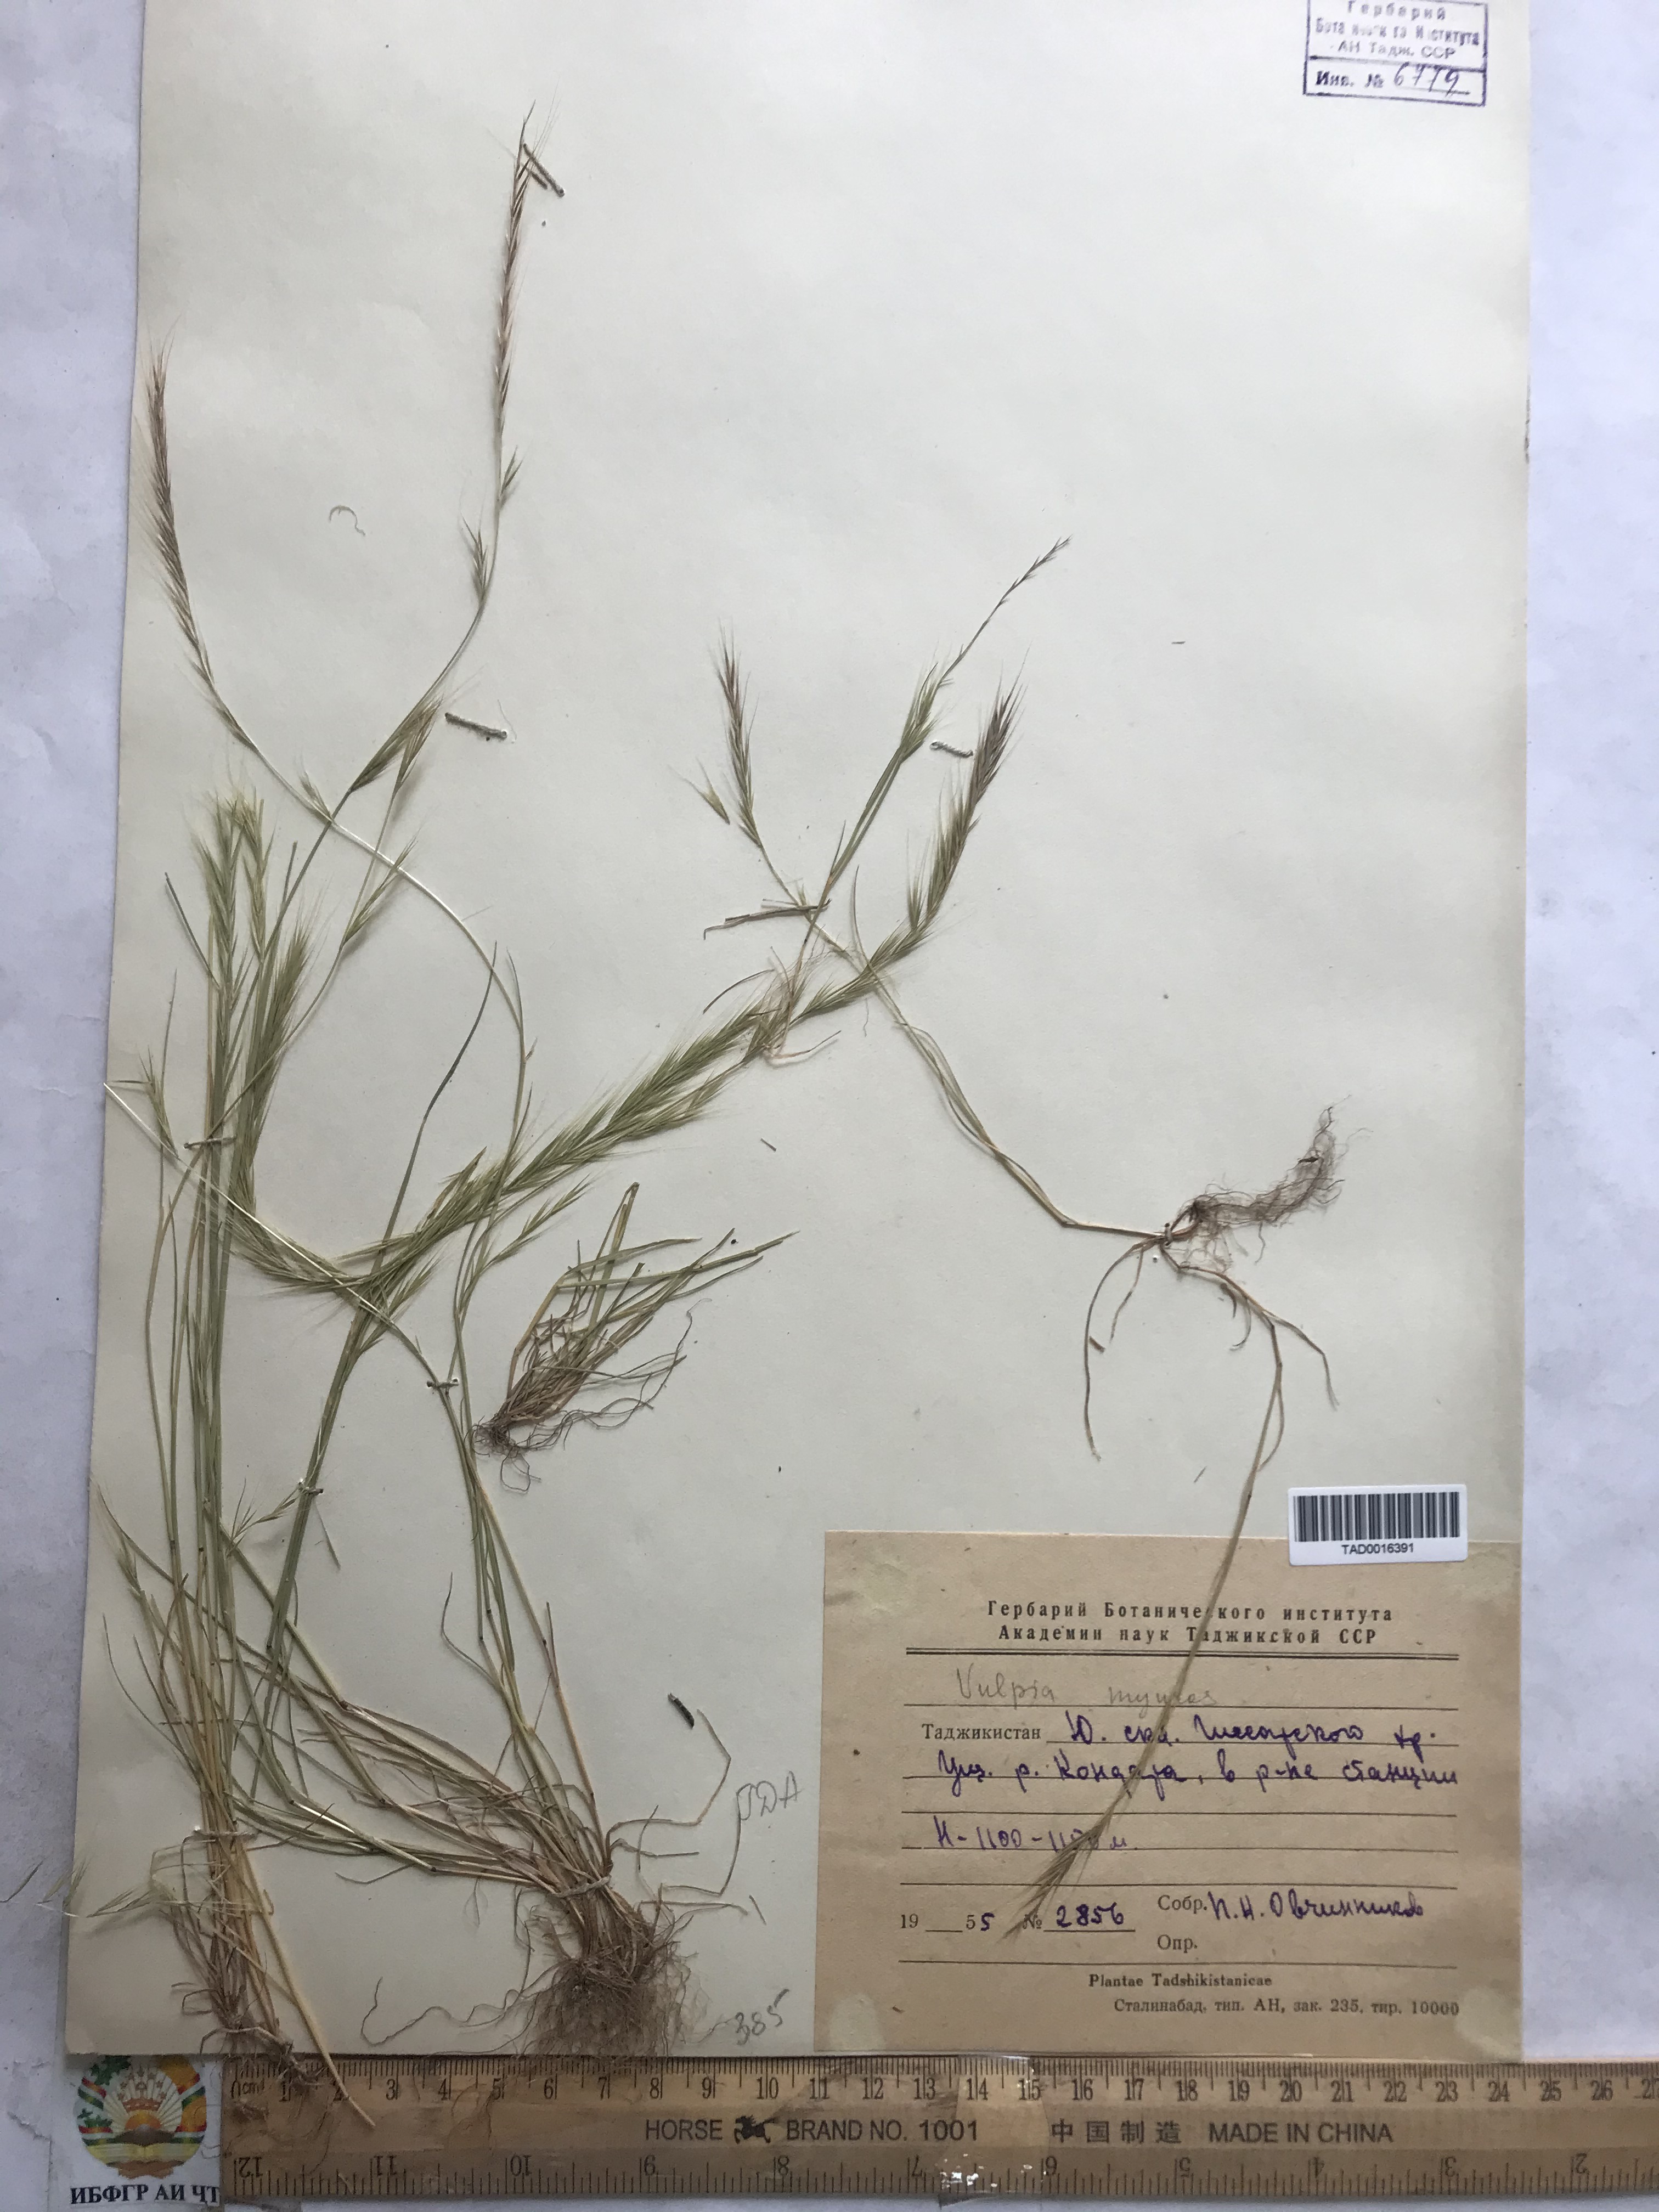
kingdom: Plantae
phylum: Tracheophyta
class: Liliopsida
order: Poales
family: Poaceae
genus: Festuca
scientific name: Festuca myuros
